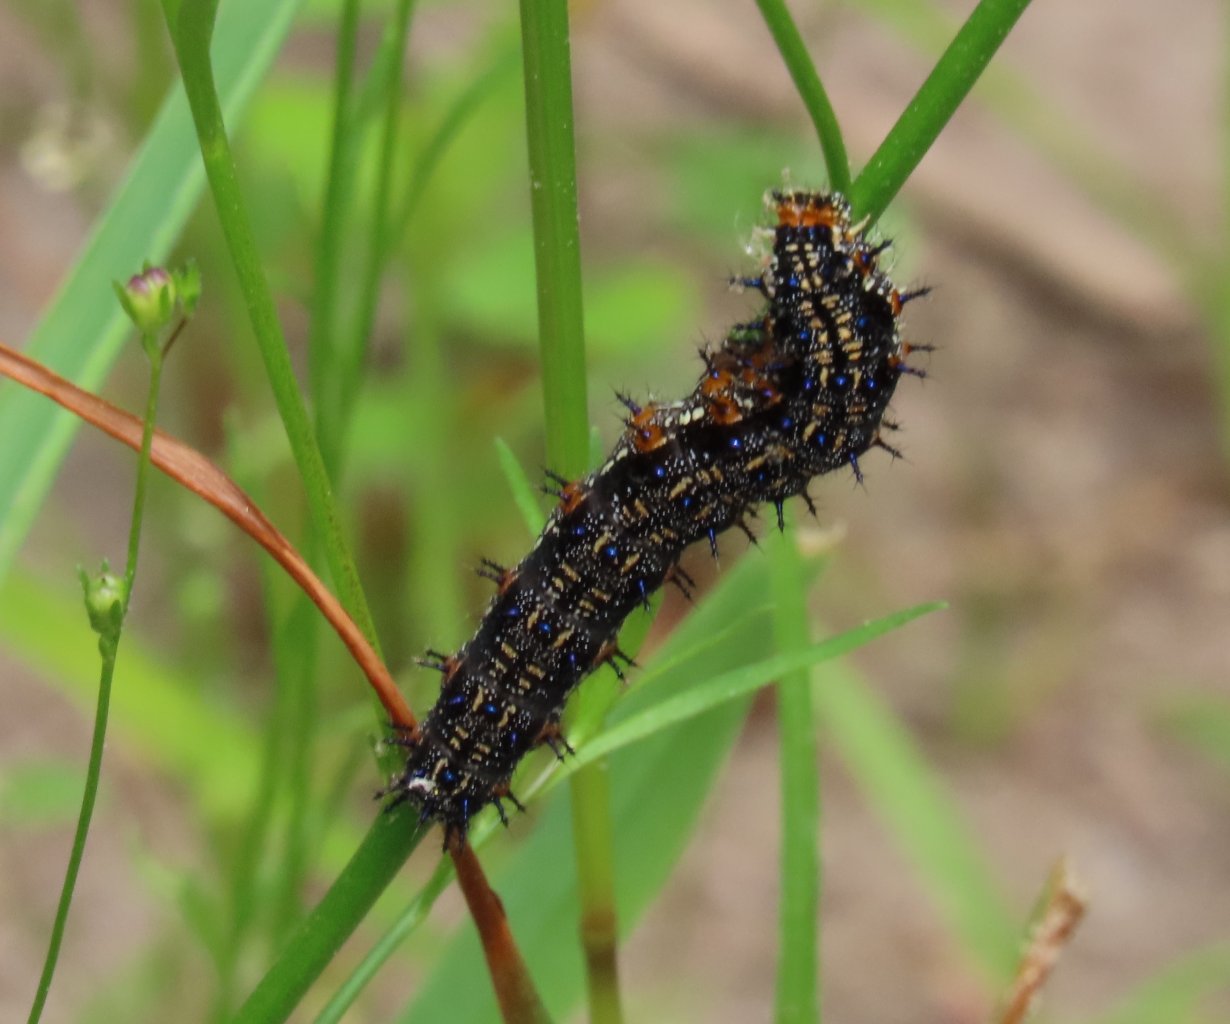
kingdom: Animalia
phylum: Arthropoda
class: Insecta
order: Lepidoptera
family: Nymphalidae
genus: Junonia
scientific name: Junonia coenia
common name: Common Buckeye
